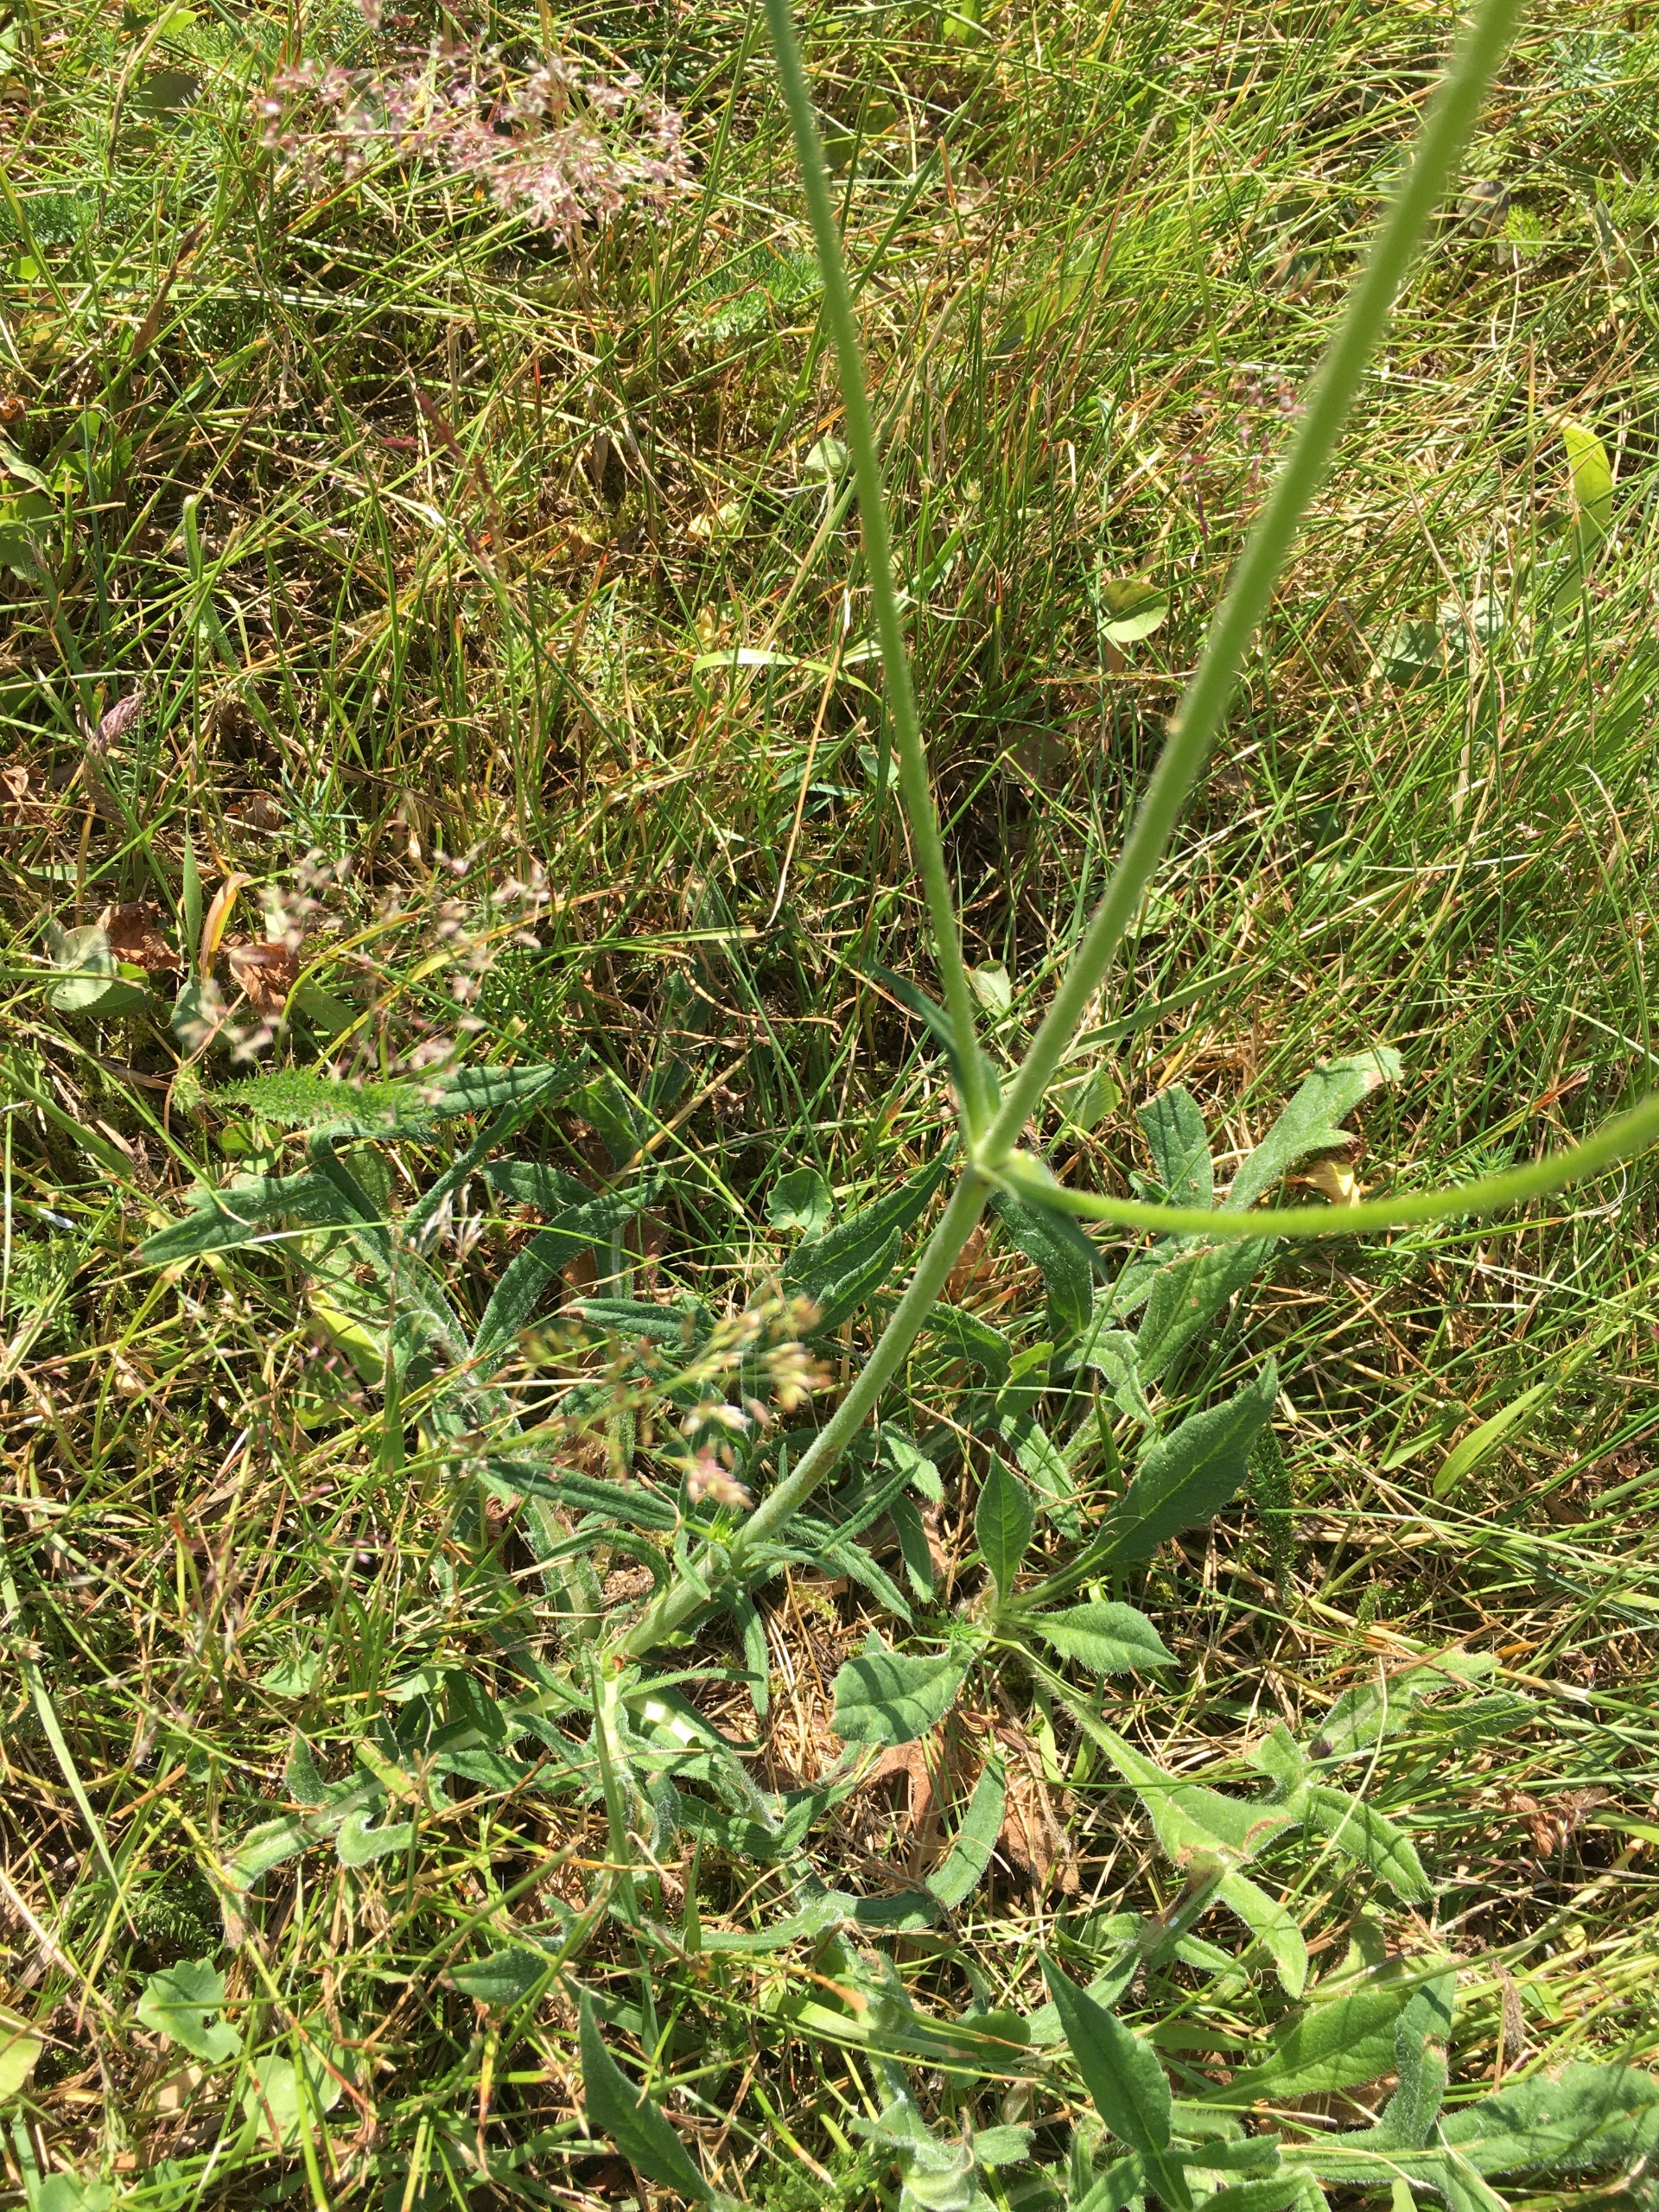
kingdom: Plantae
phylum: Tracheophyta
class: Magnoliopsida
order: Dipsacales
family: Caprifoliaceae
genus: Knautia
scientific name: Knautia arvensis
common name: Blåhat
